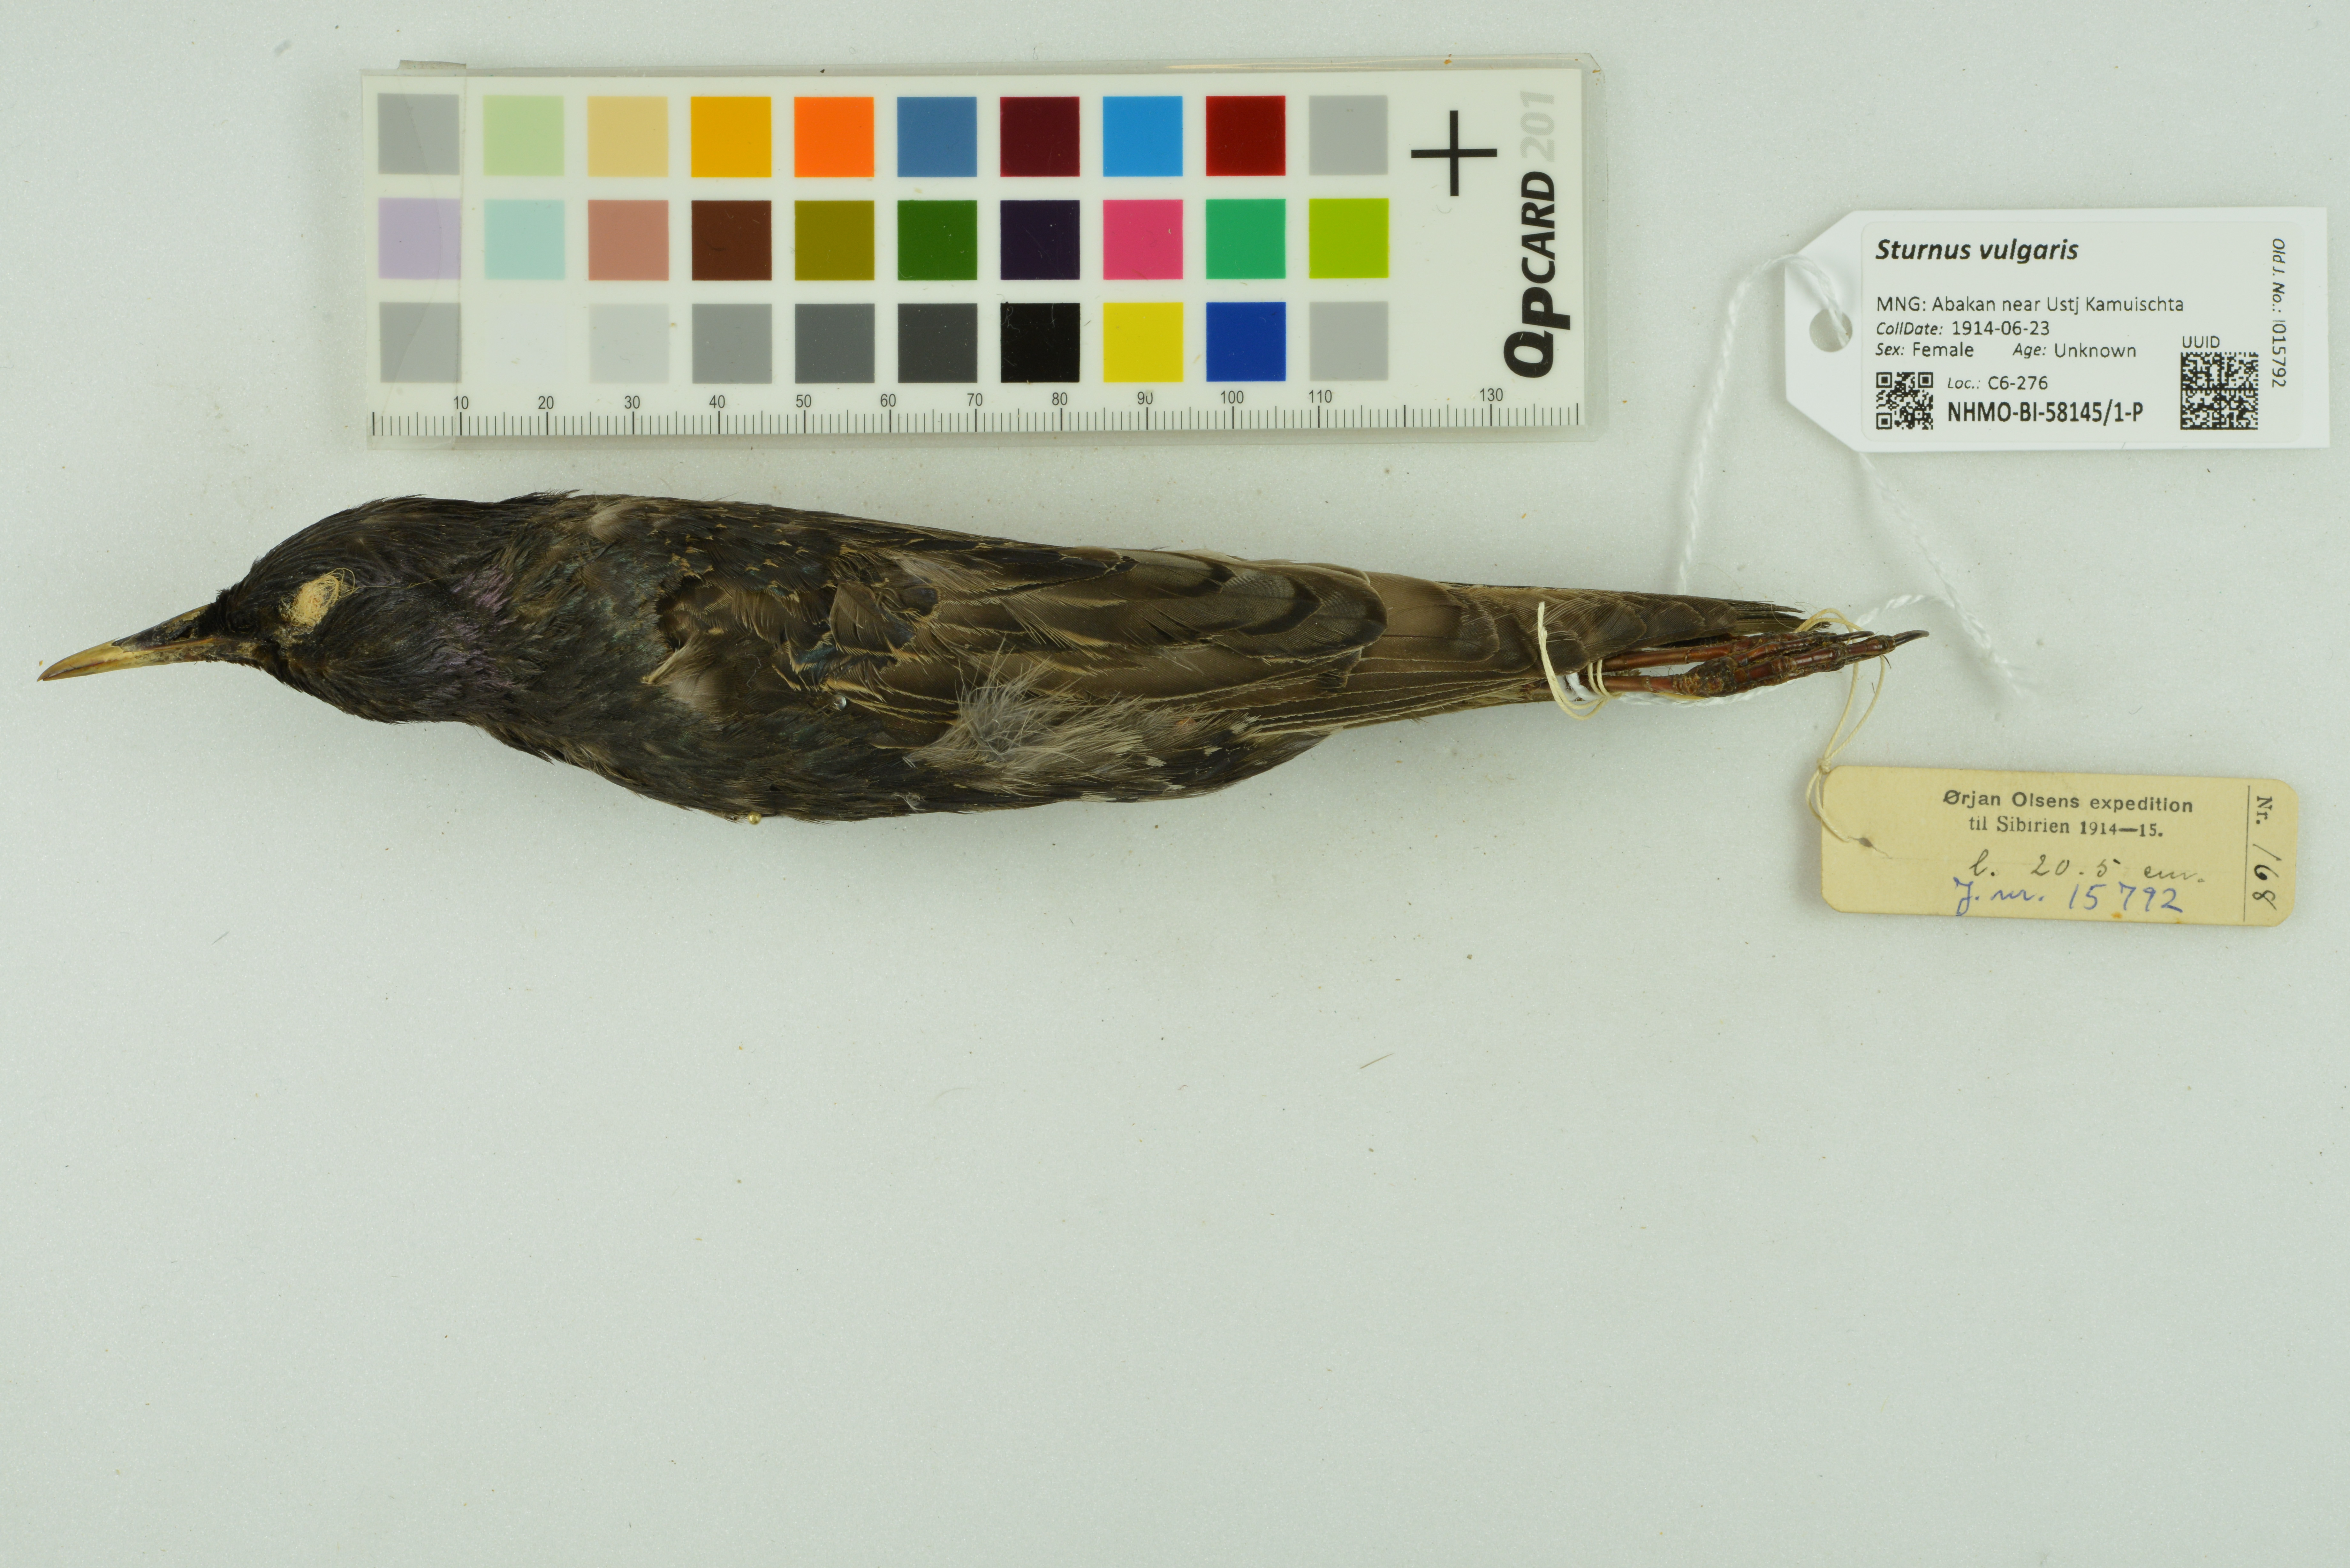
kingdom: Animalia
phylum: Chordata
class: Aves
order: Passeriformes
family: Sturnidae
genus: Sturnus
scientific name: Sturnus vulgaris
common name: Common starling
